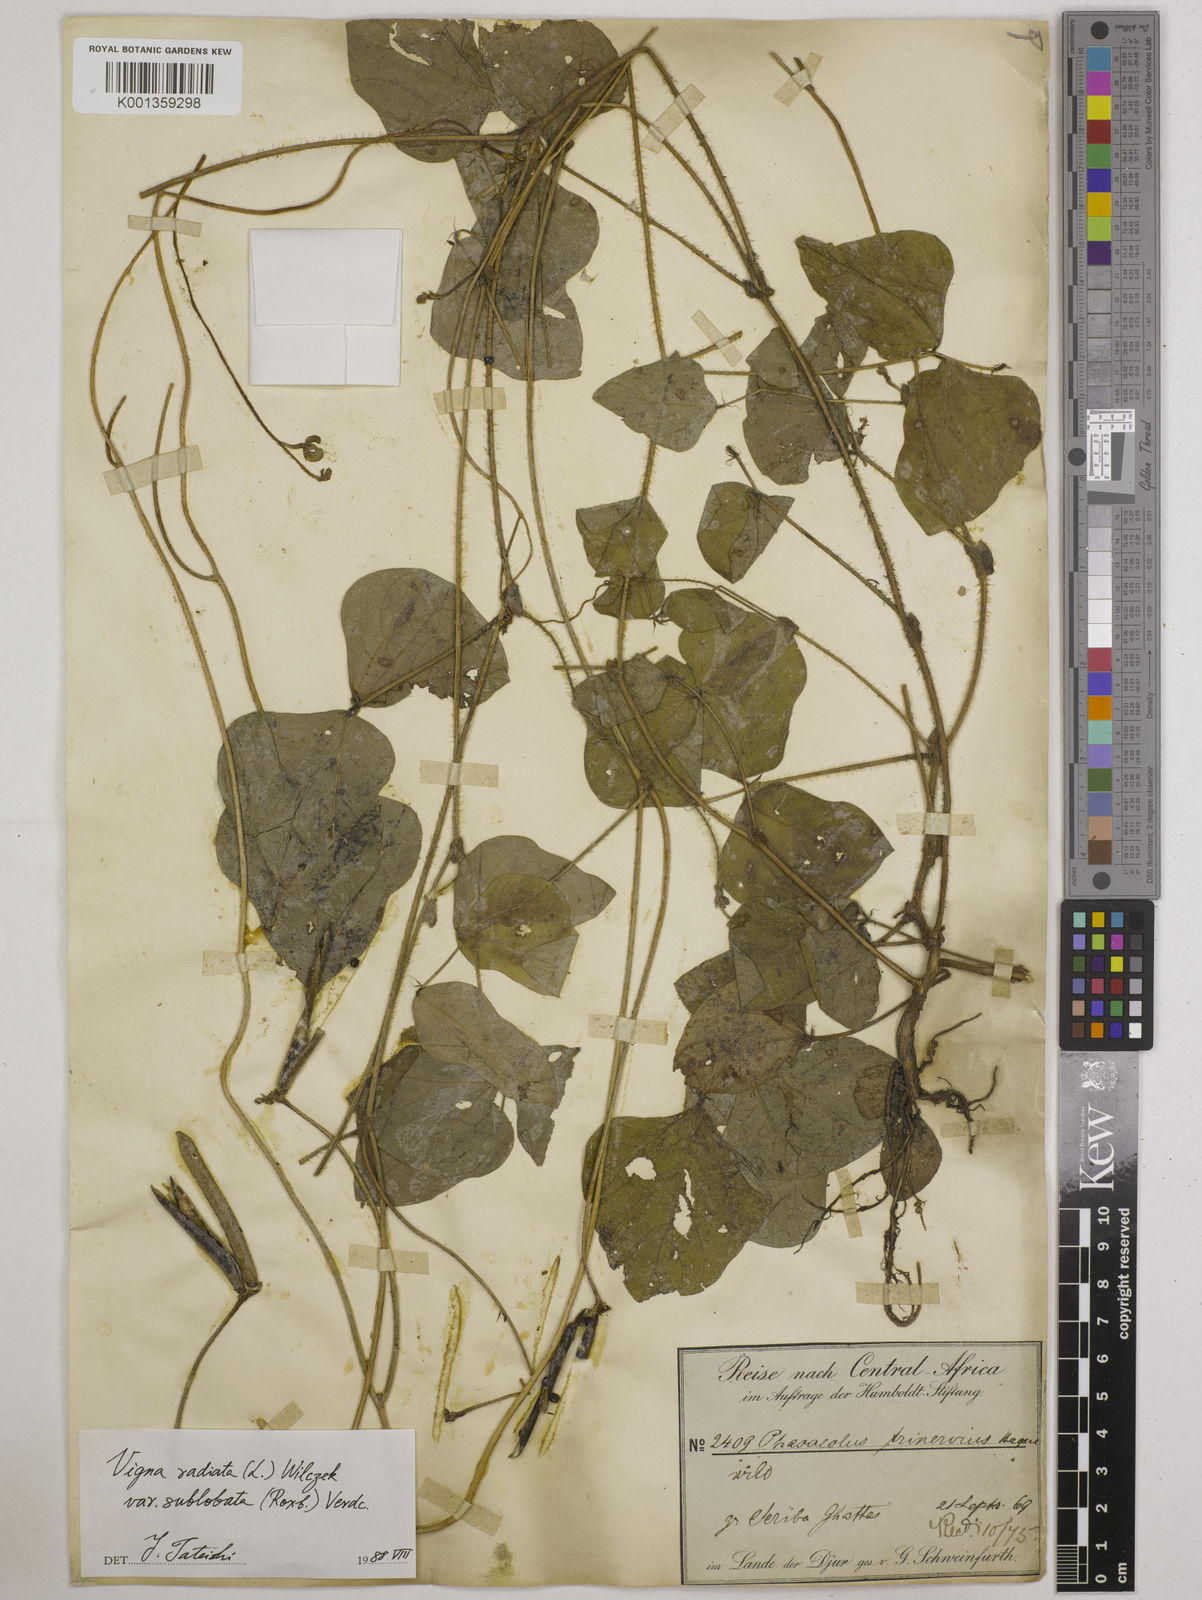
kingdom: Plantae
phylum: Tracheophyta
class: Magnoliopsida
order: Fabales
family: Fabaceae
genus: Vigna
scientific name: Vigna radiata
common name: Mung-bean
